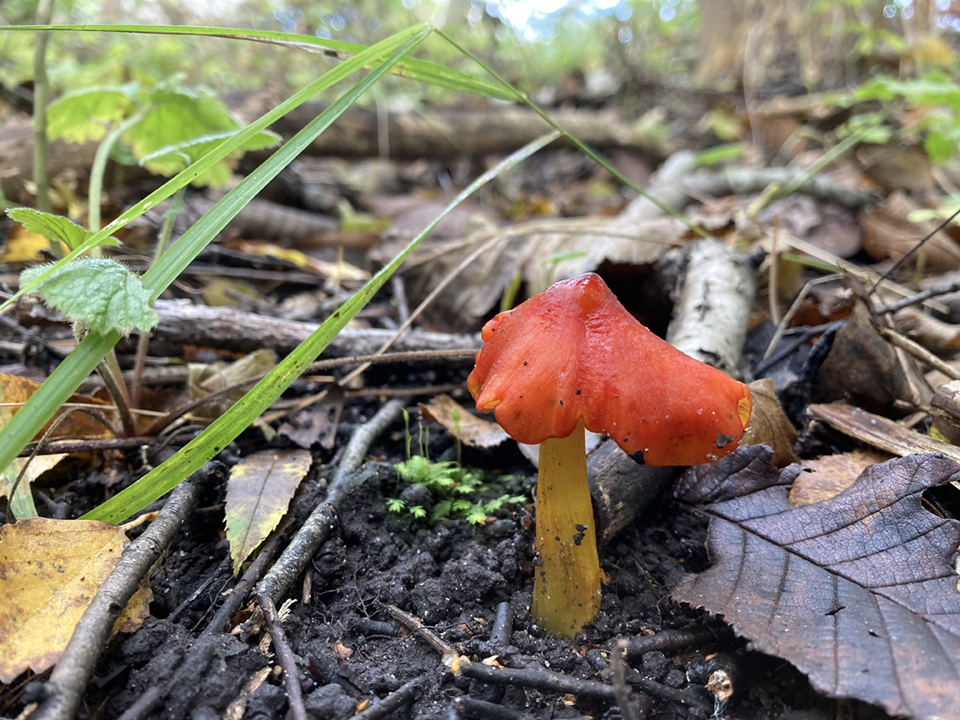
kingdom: Fungi
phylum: Basidiomycota
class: Agaricomycetes
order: Agaricales
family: Hygrophoraceae
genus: Hygrocybe
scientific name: Hygrocybe conica
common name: kegle-vokshat
